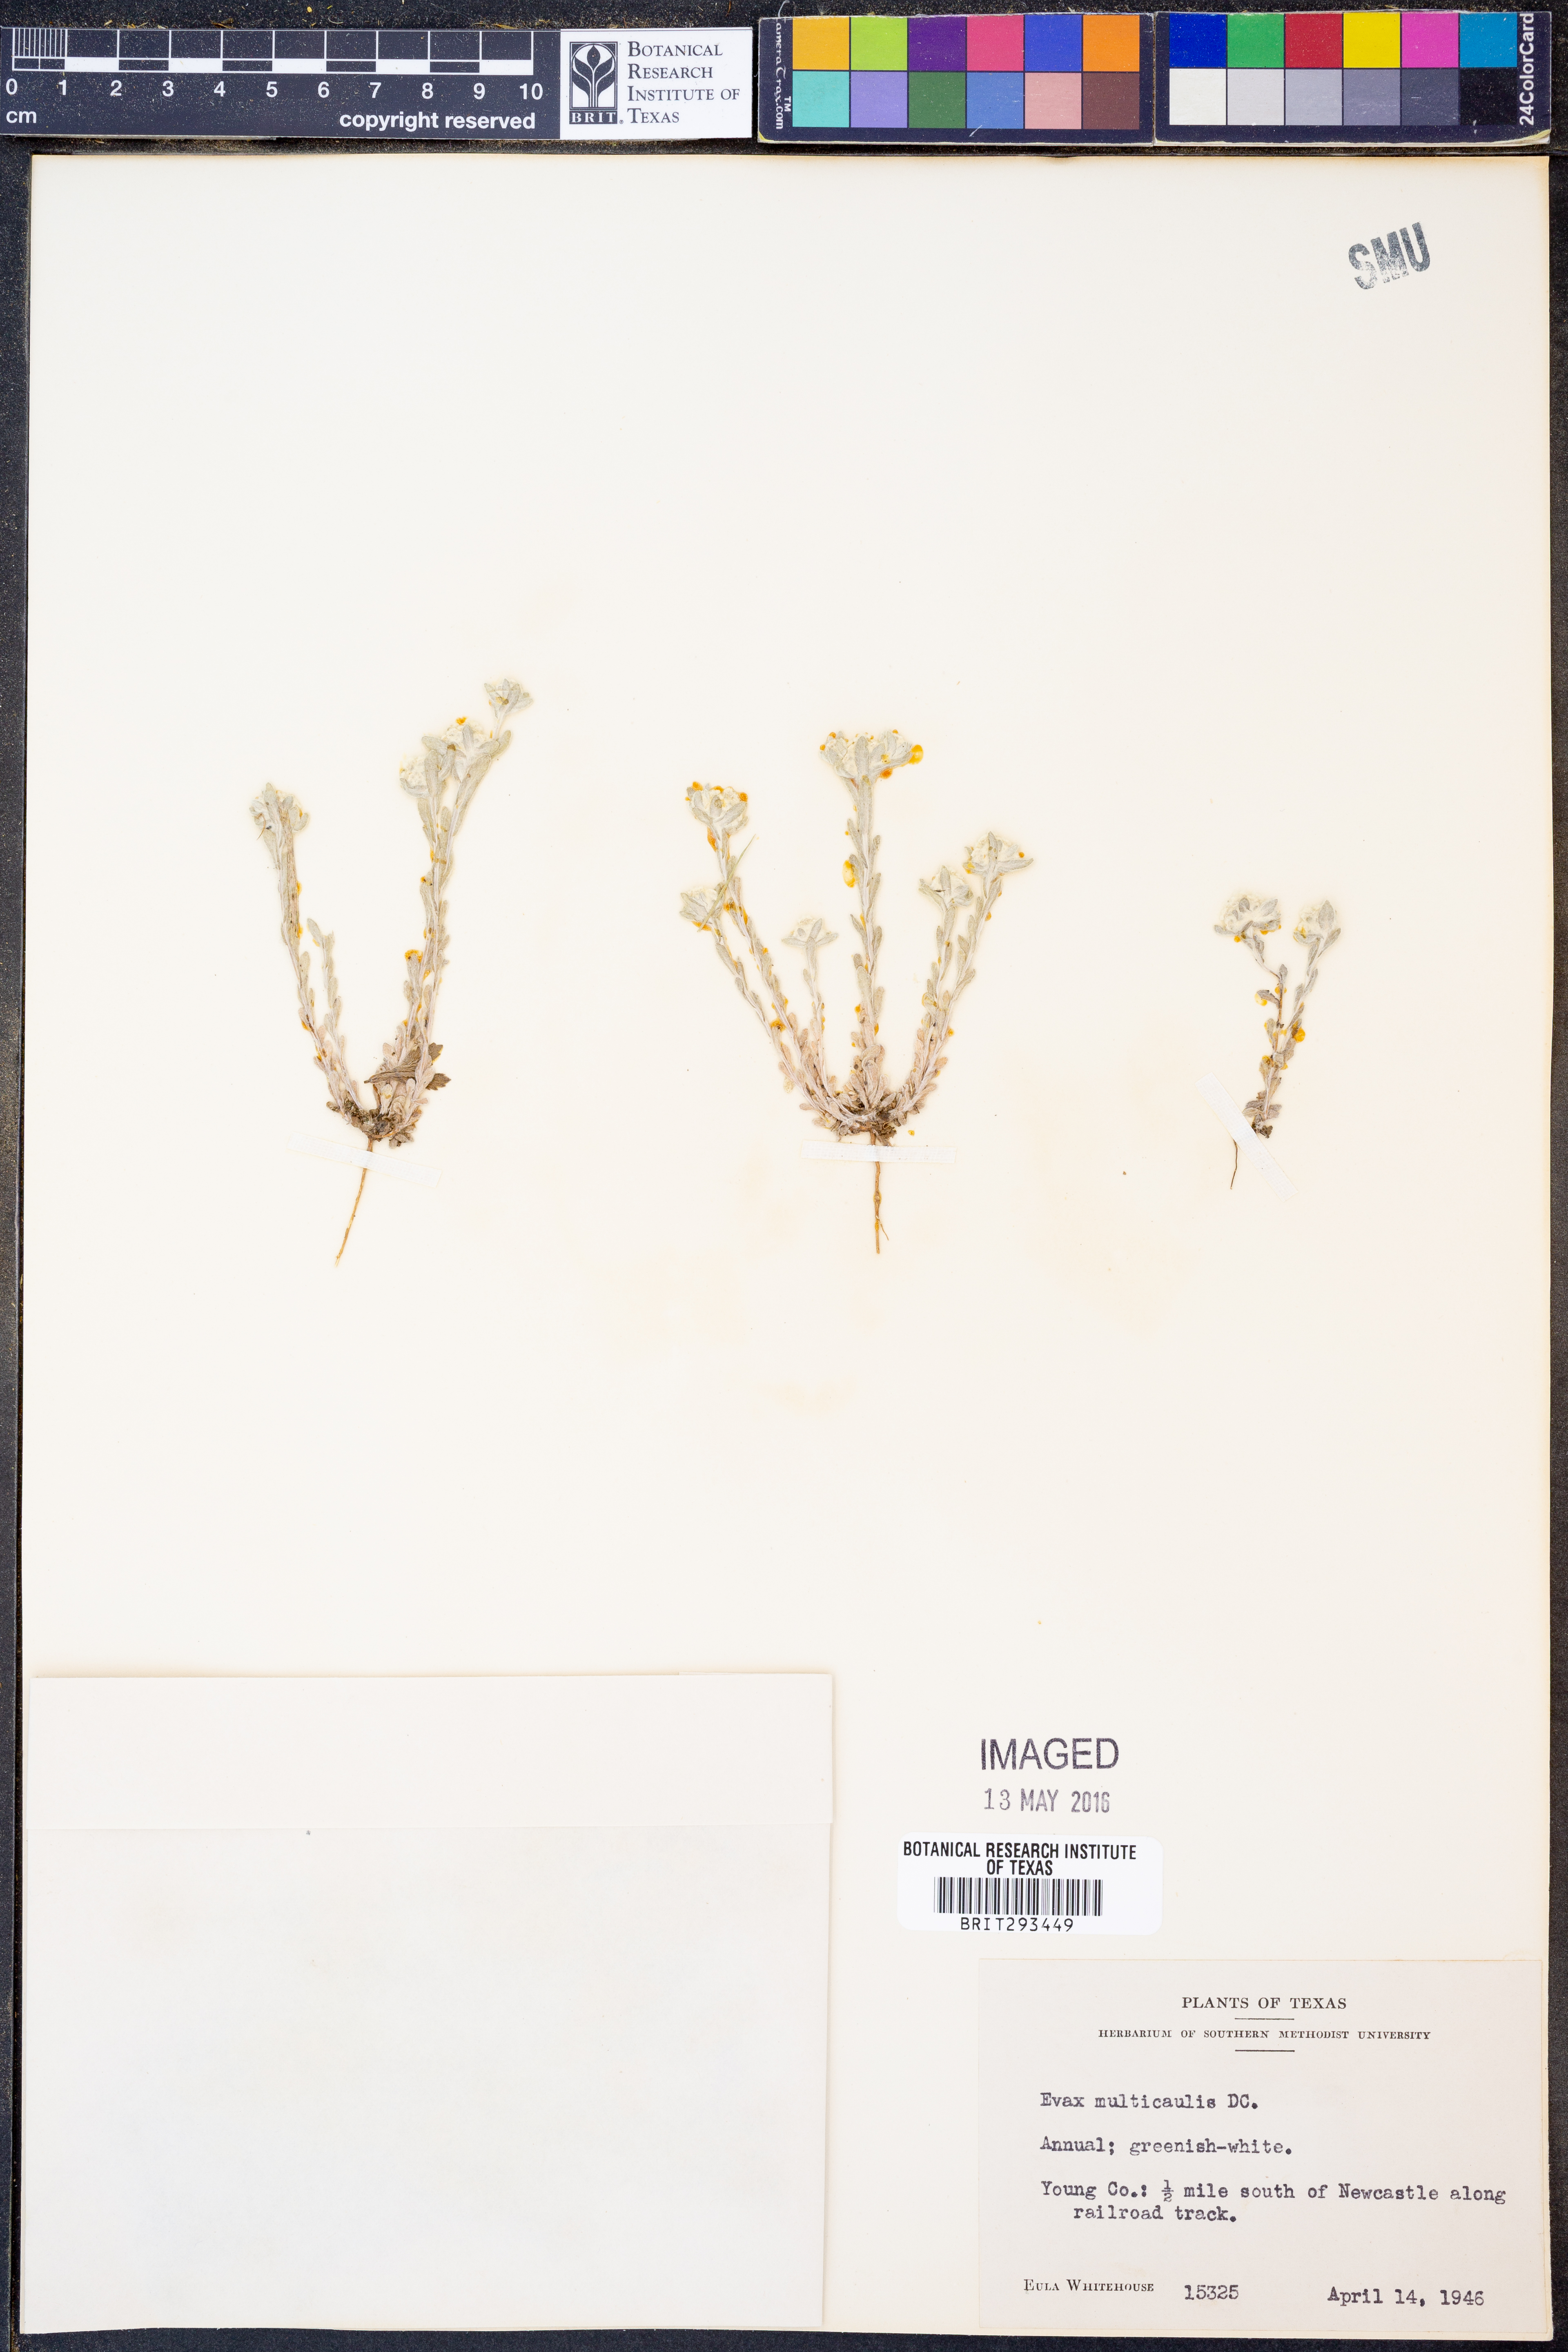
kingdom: Plantae
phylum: Tracheophyta
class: Magnoliopsida
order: Asterales
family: Asteraceae
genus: Diaperia
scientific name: Diaperia verna
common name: Many-stem rabbit-tobacco
